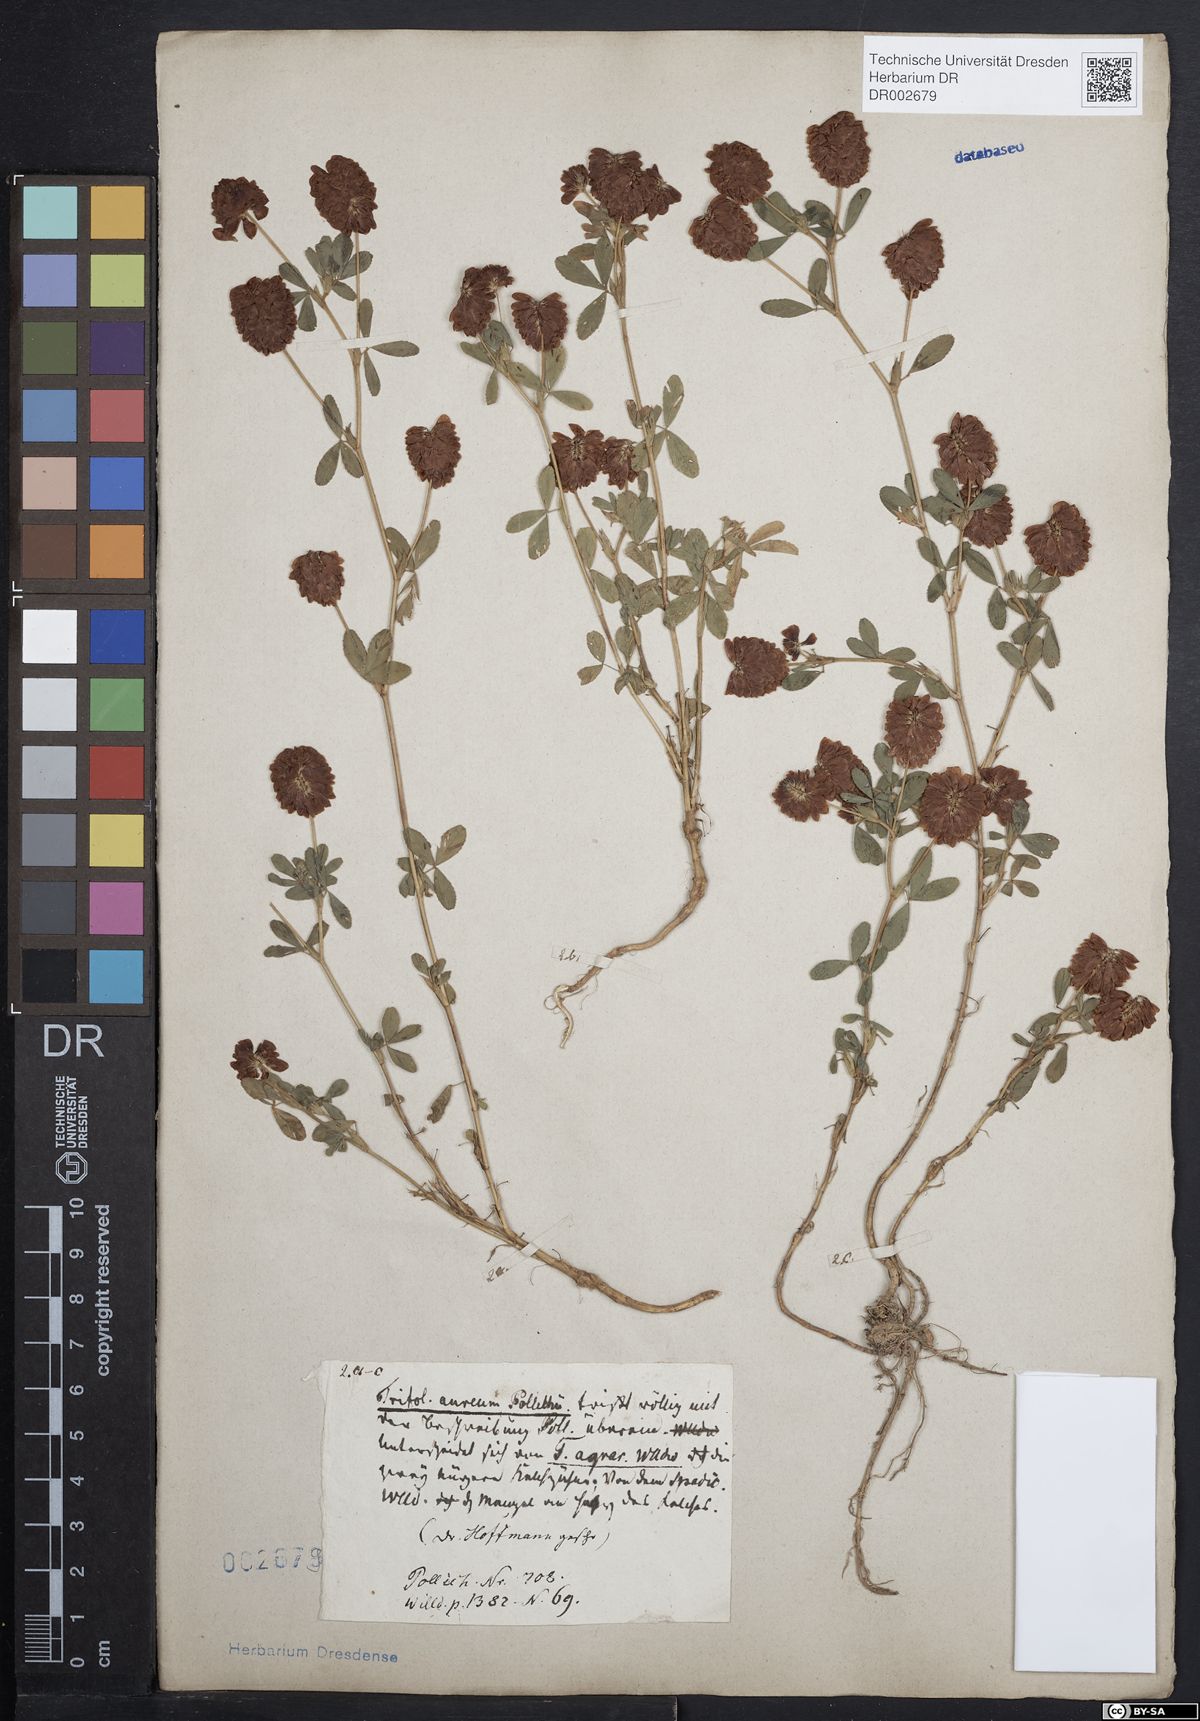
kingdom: Plantae
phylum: Tracheophyta
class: Magnoliopsida
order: Fabales
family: Fabaceae
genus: Trifolium
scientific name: Trifolium aureum
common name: Golden clover
